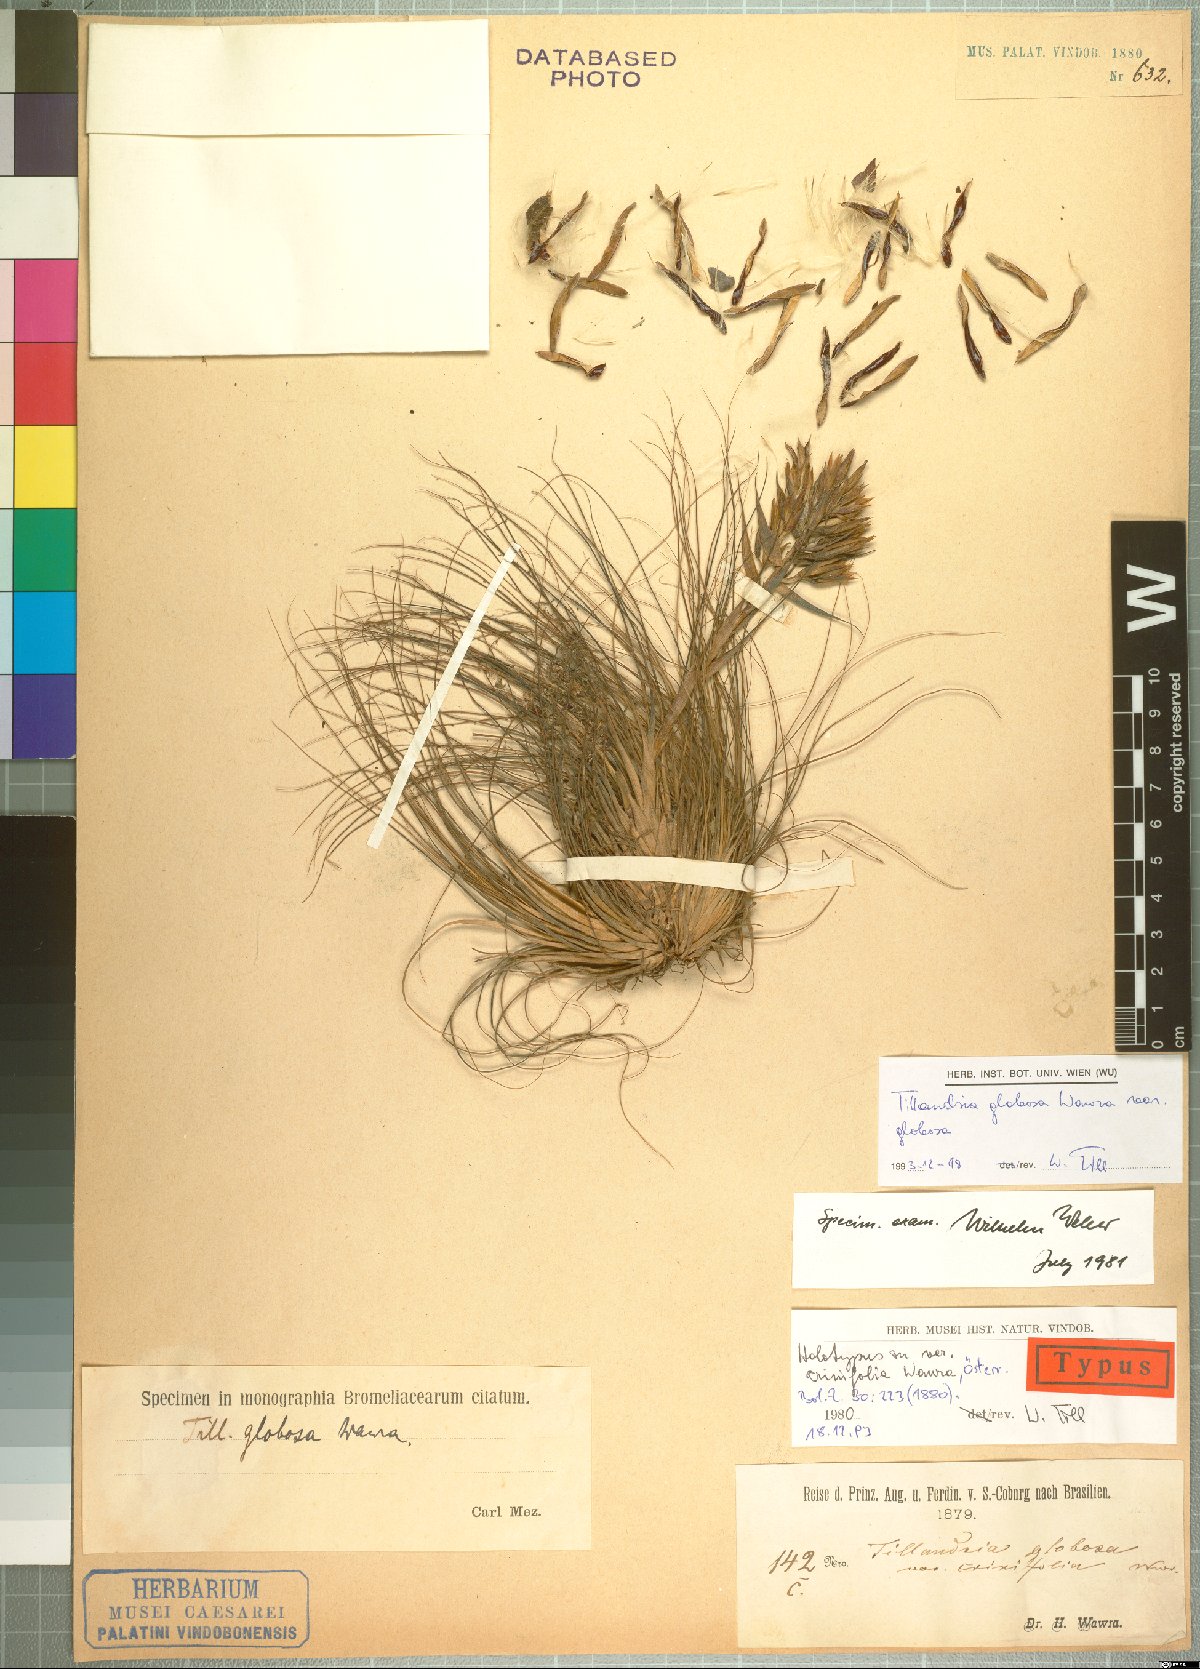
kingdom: Plantae
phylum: Tracheophyta
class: Liliopsida
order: Poales
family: Bromeliaceae
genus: Tillandsia
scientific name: Tillandsia globosa
